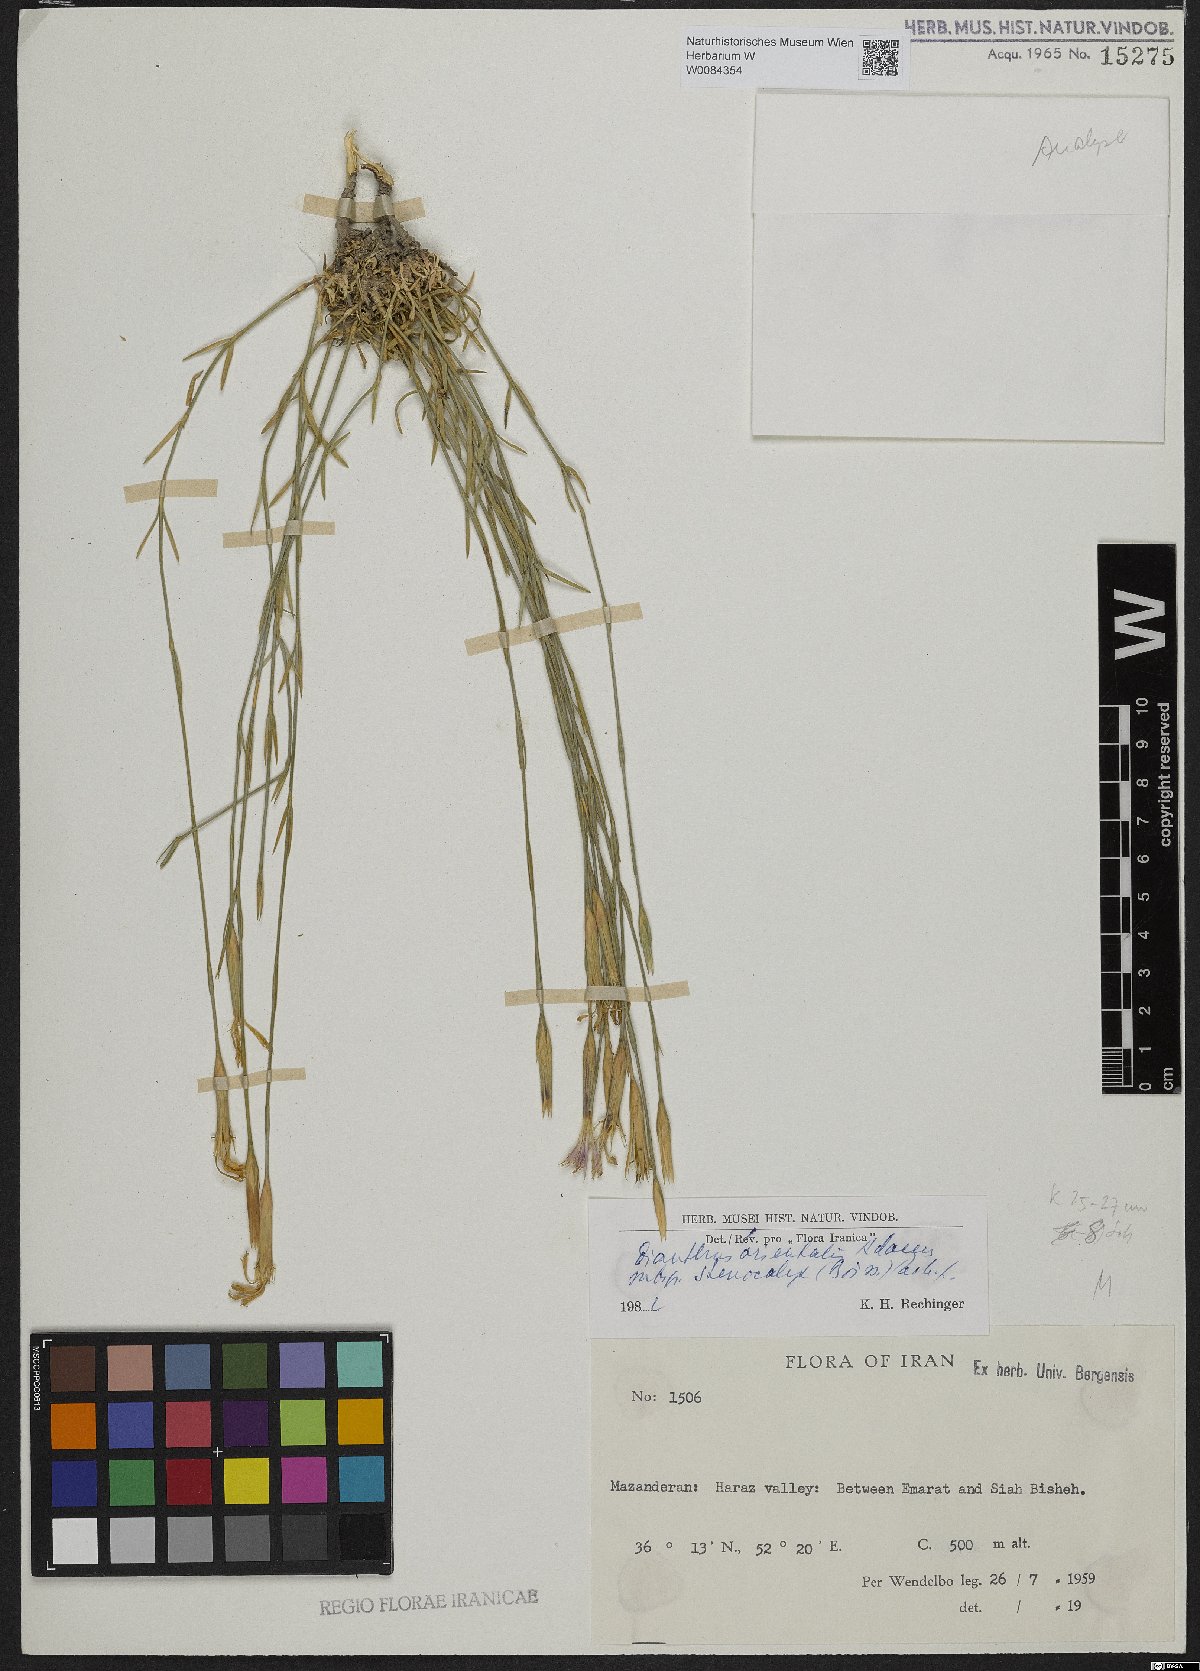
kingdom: Plantae
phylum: Tracheophyta
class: Magnoliopsida
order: Caryophyllales
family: Caryophyllaceae
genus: Dianthus
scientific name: Dianthus orientalis
